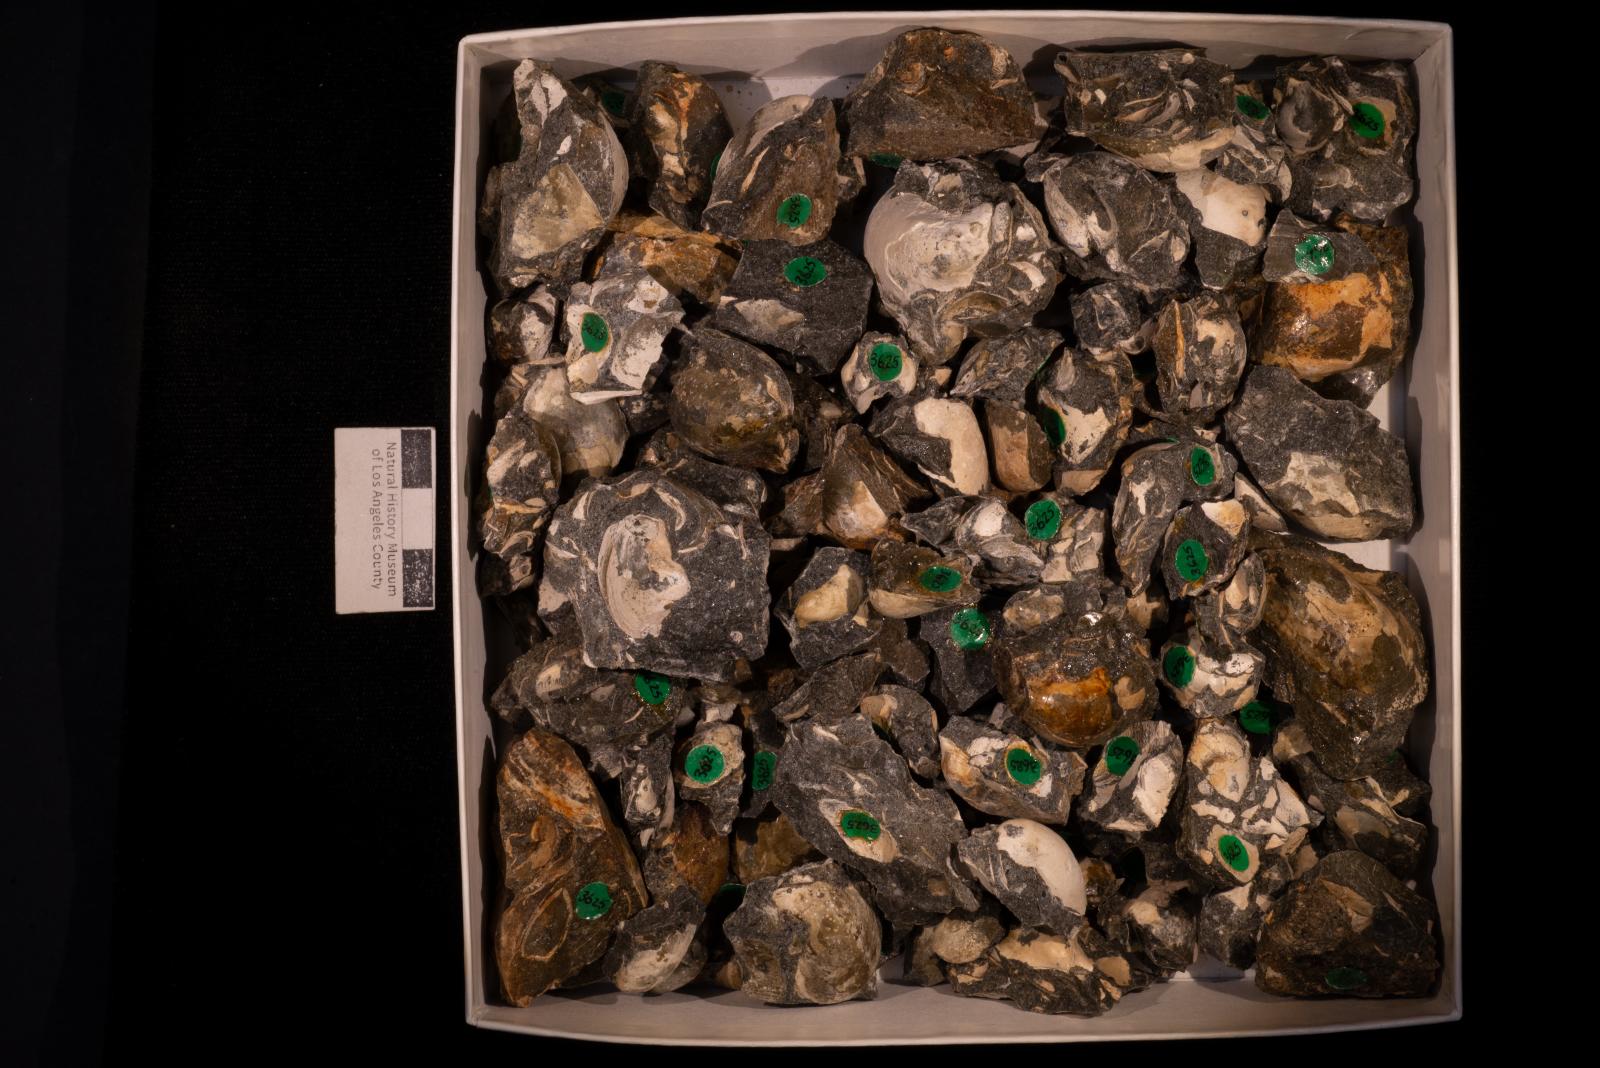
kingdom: Animalia
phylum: Mollusca
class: Bivalvia
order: Ostreida
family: Pteriidae
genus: Pteria
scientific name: Pteria pellucida
